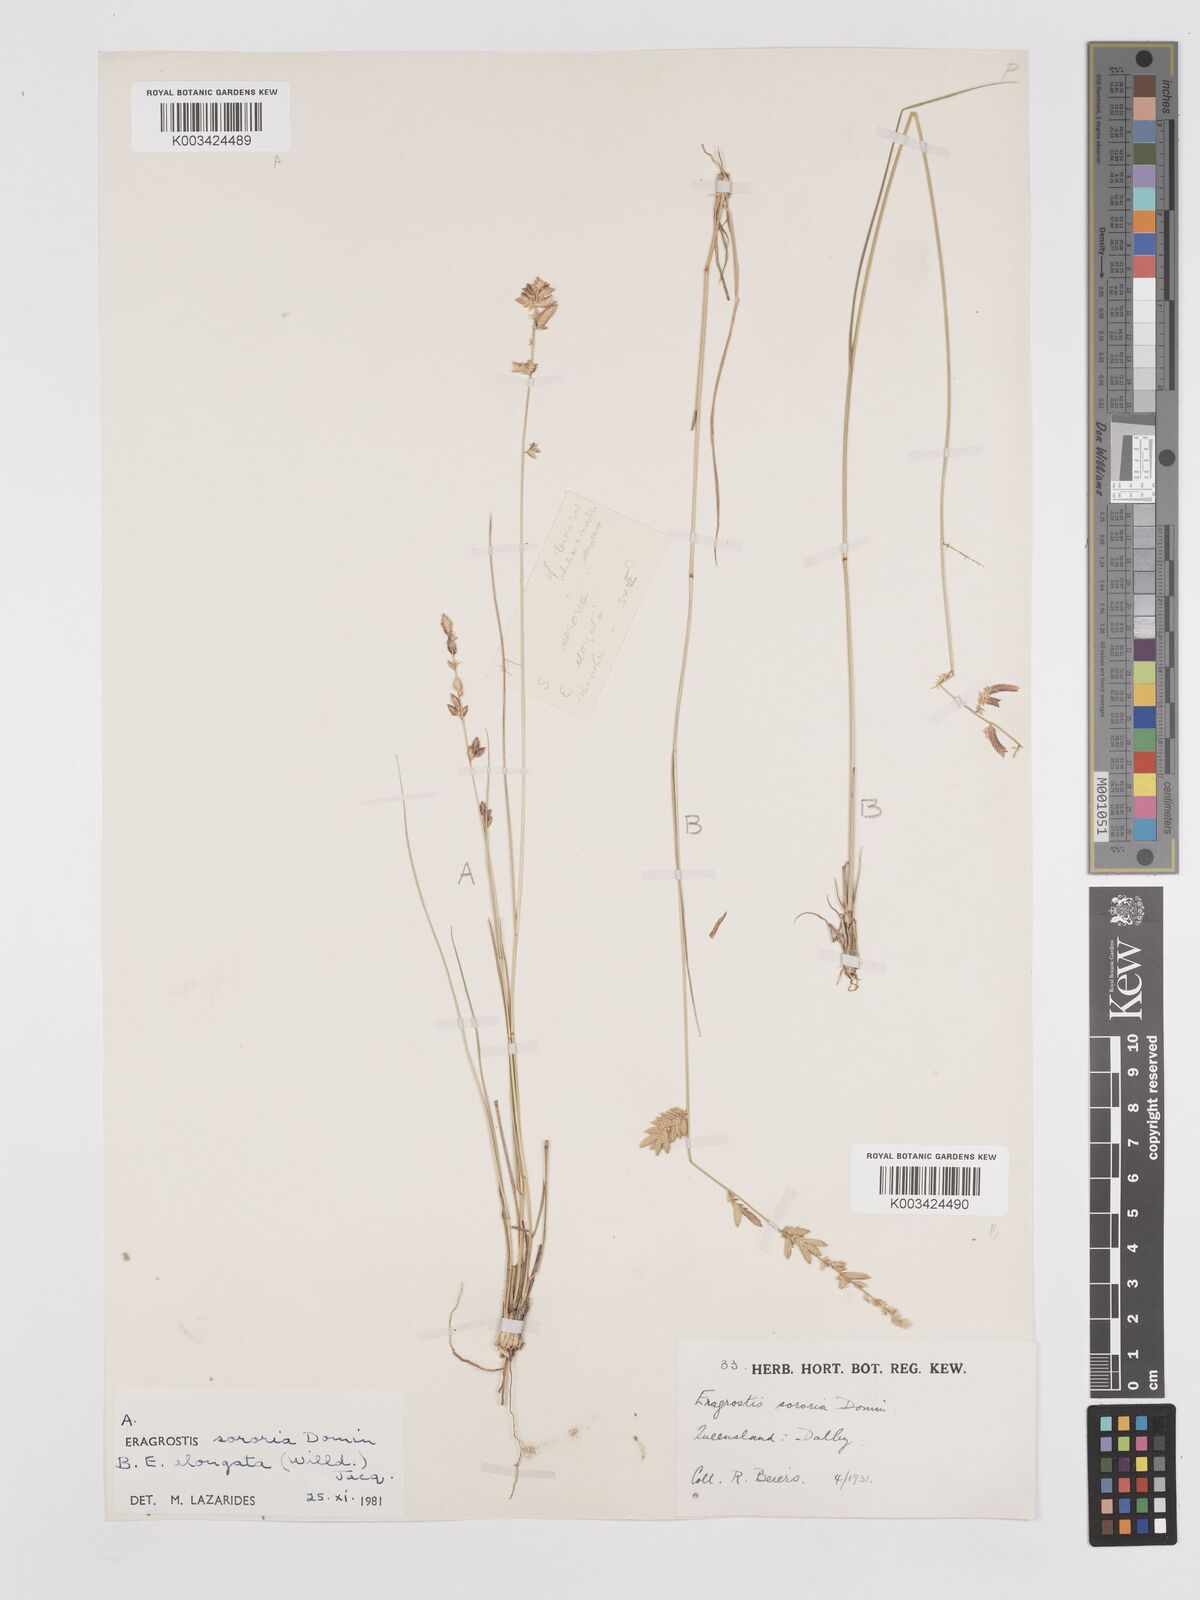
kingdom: Plantae
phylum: Tracheophyta
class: Liliopsida
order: Poales
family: Poaceae
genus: Eragrostis
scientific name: Eragrostis elongata
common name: Long lovegrass
